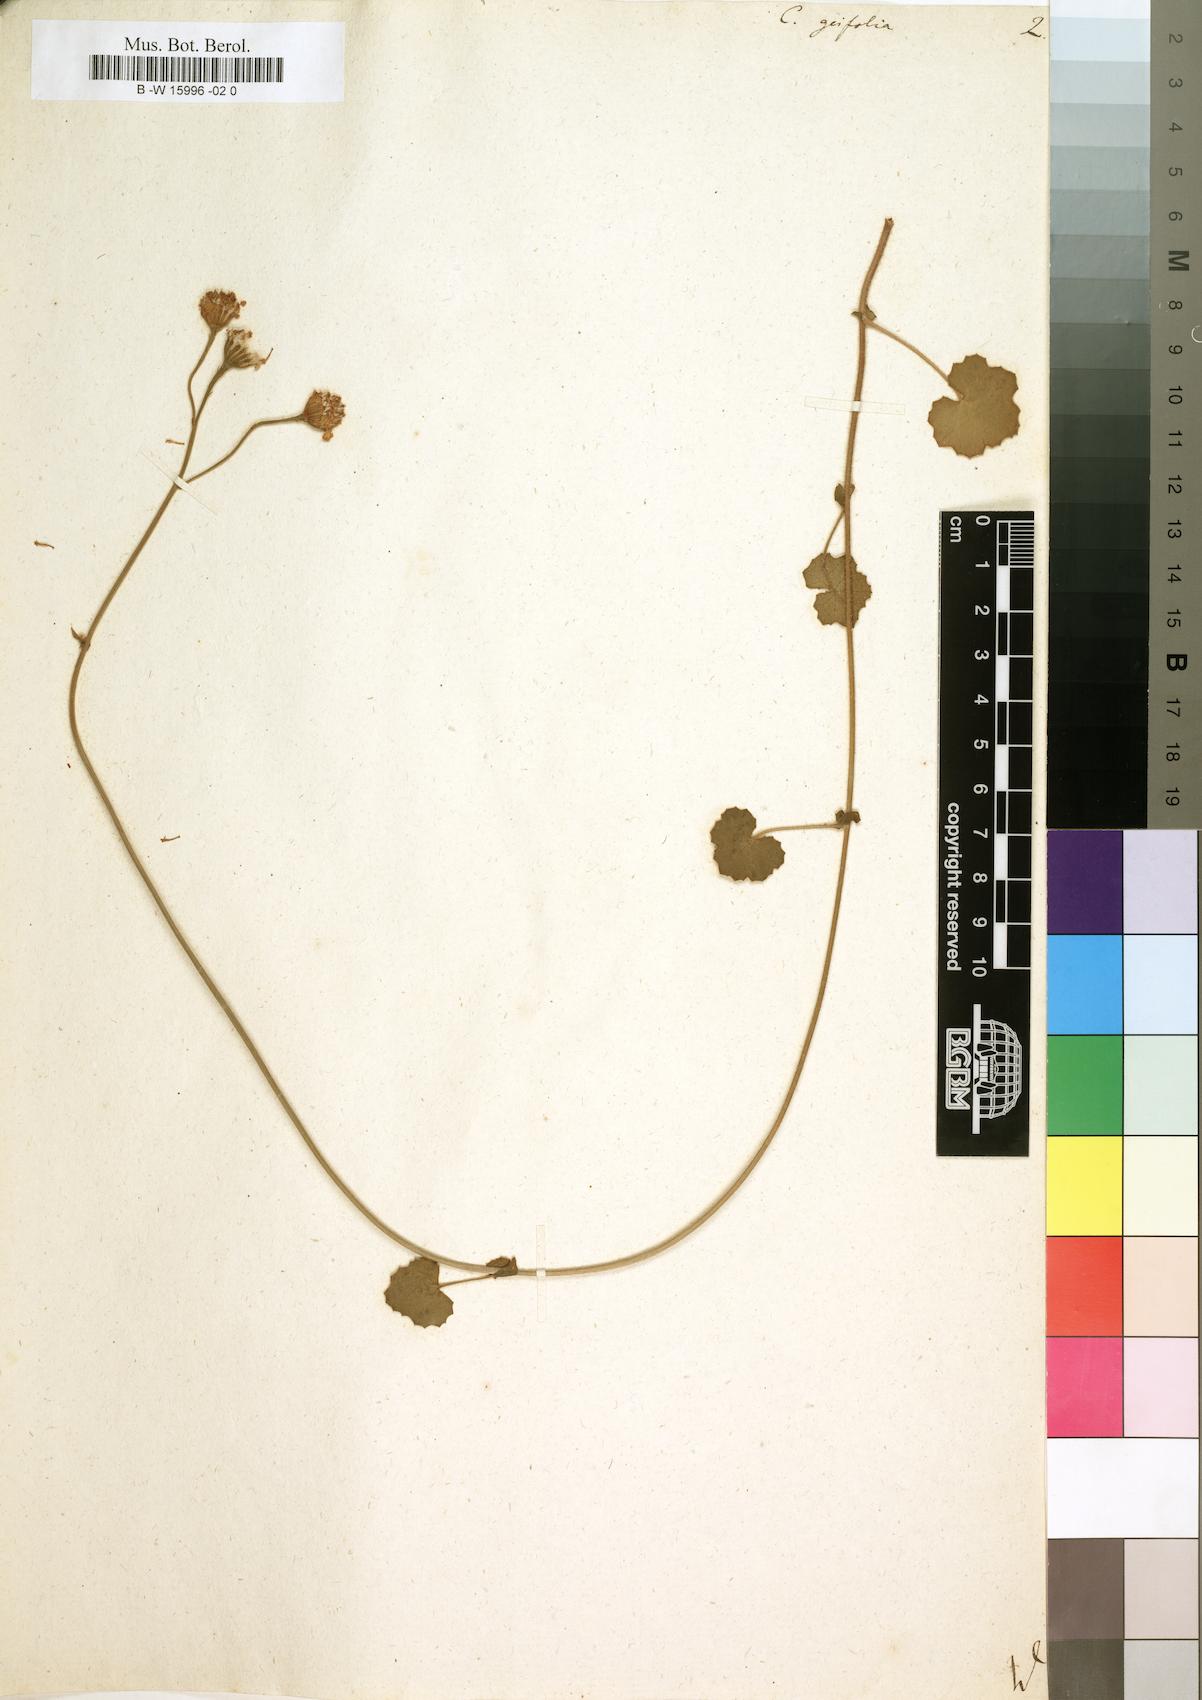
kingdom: Plantae
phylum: Tracheophyta
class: Magnoliopsida
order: Asterales
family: Asteraceae
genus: Cineraria
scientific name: Cineraria geifolia
